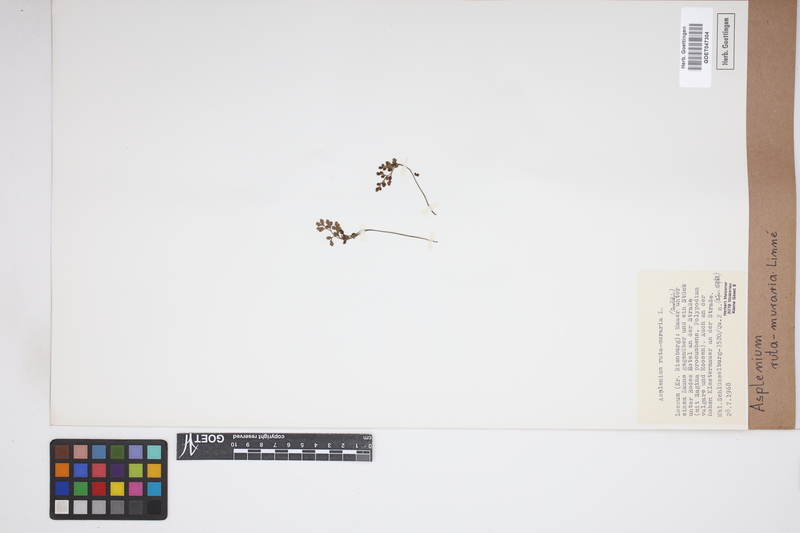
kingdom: Plantae
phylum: Tracheophyta
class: Polypodiopsida
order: Polypodiales
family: Aspleniaceae
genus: Asplenium
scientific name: Asplenium ruta-muraria
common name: Wall-rue
